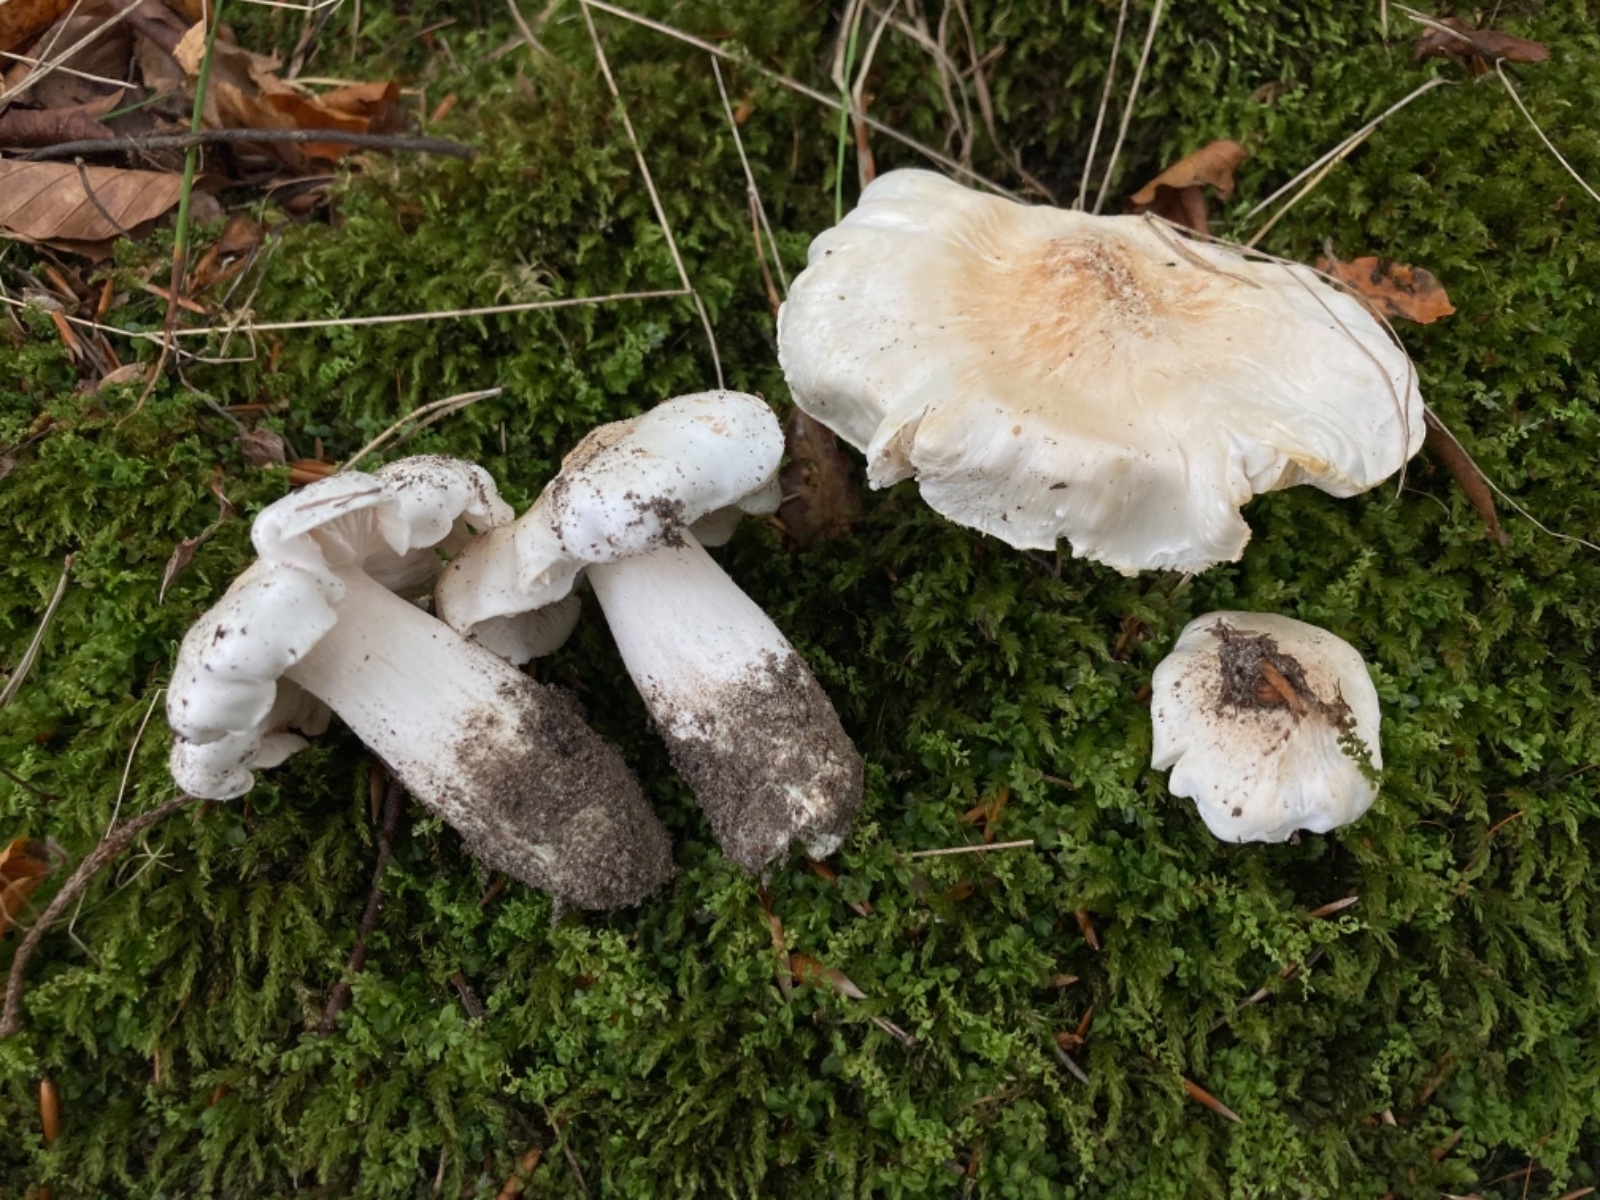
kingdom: Fungi
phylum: Basidiomycota
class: Agaricomycetes
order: Agaricales
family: Tricholomataceae
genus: Tricholoma
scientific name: Tricholoma columbetta
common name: silke-ridderhat
